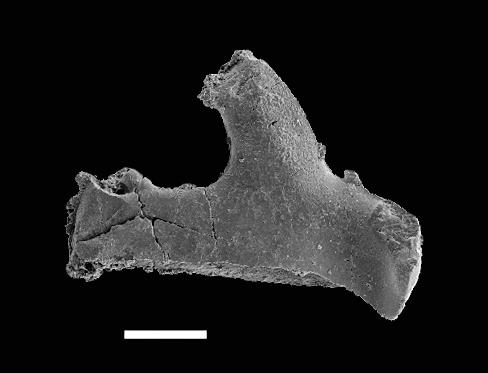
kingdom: Animalia
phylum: Chordata
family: Hibbardellidae
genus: Oulodus
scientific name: Oulodus
